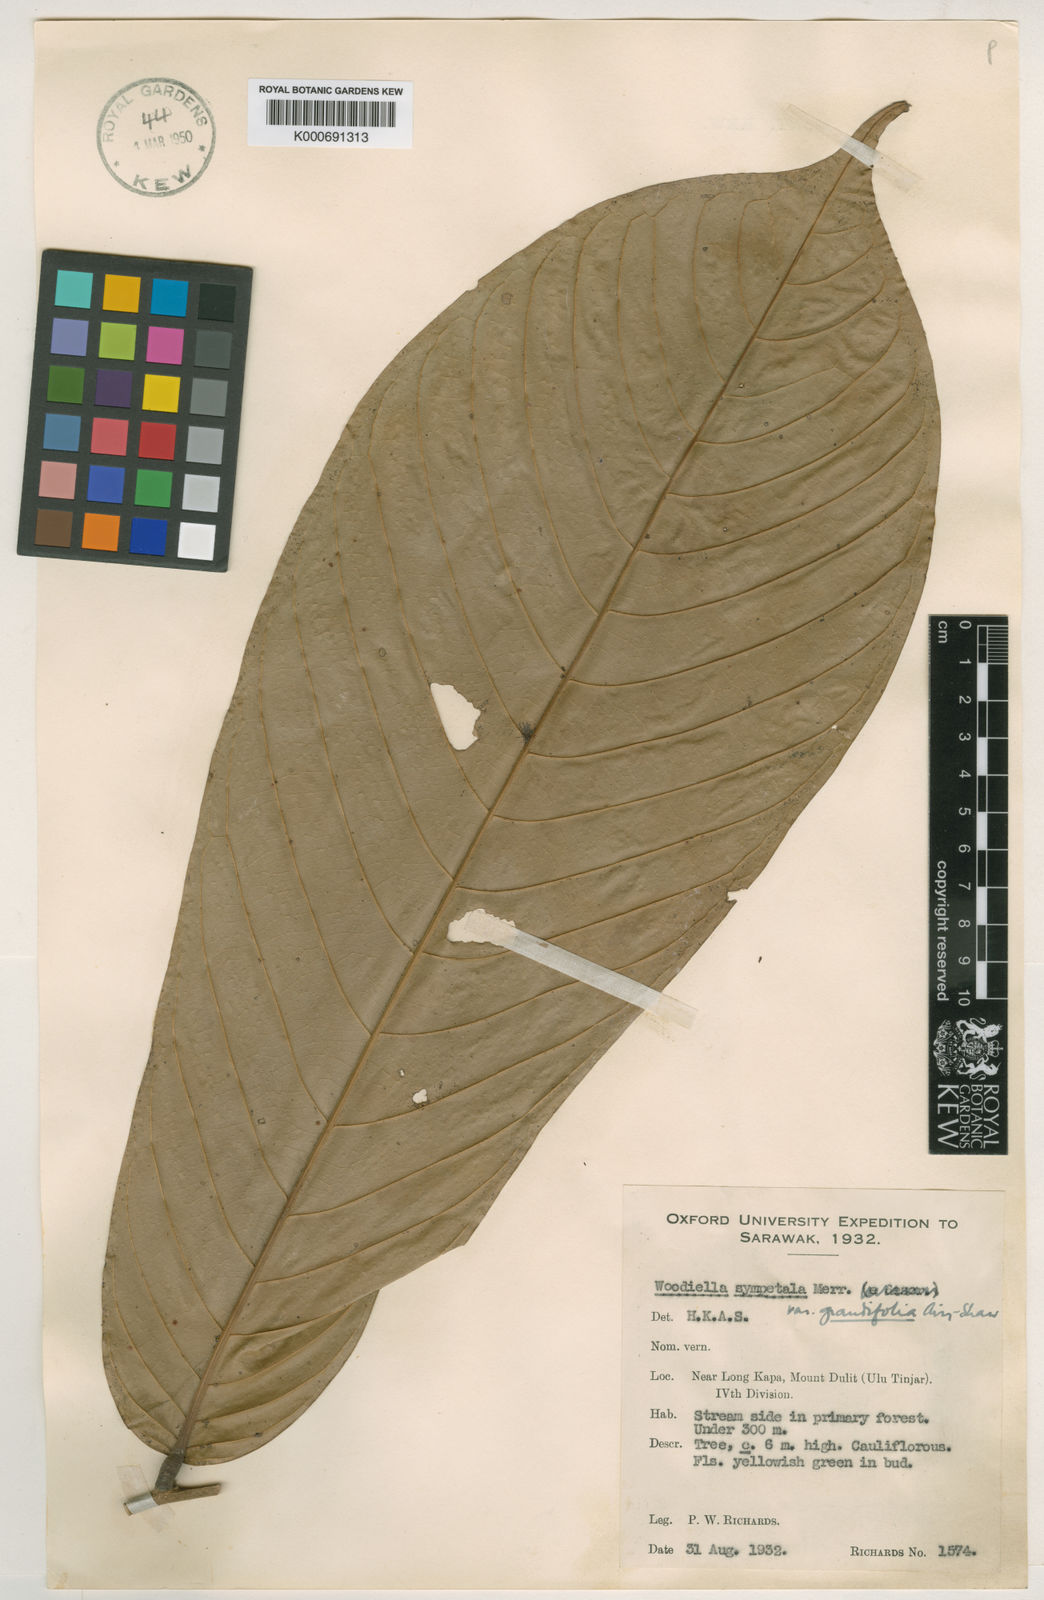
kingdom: Plantae
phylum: Tracheophyta
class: Magnoliopsida
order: Magnoliales
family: Annonaceae
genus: Woodiellantha
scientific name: Woodiellantha
